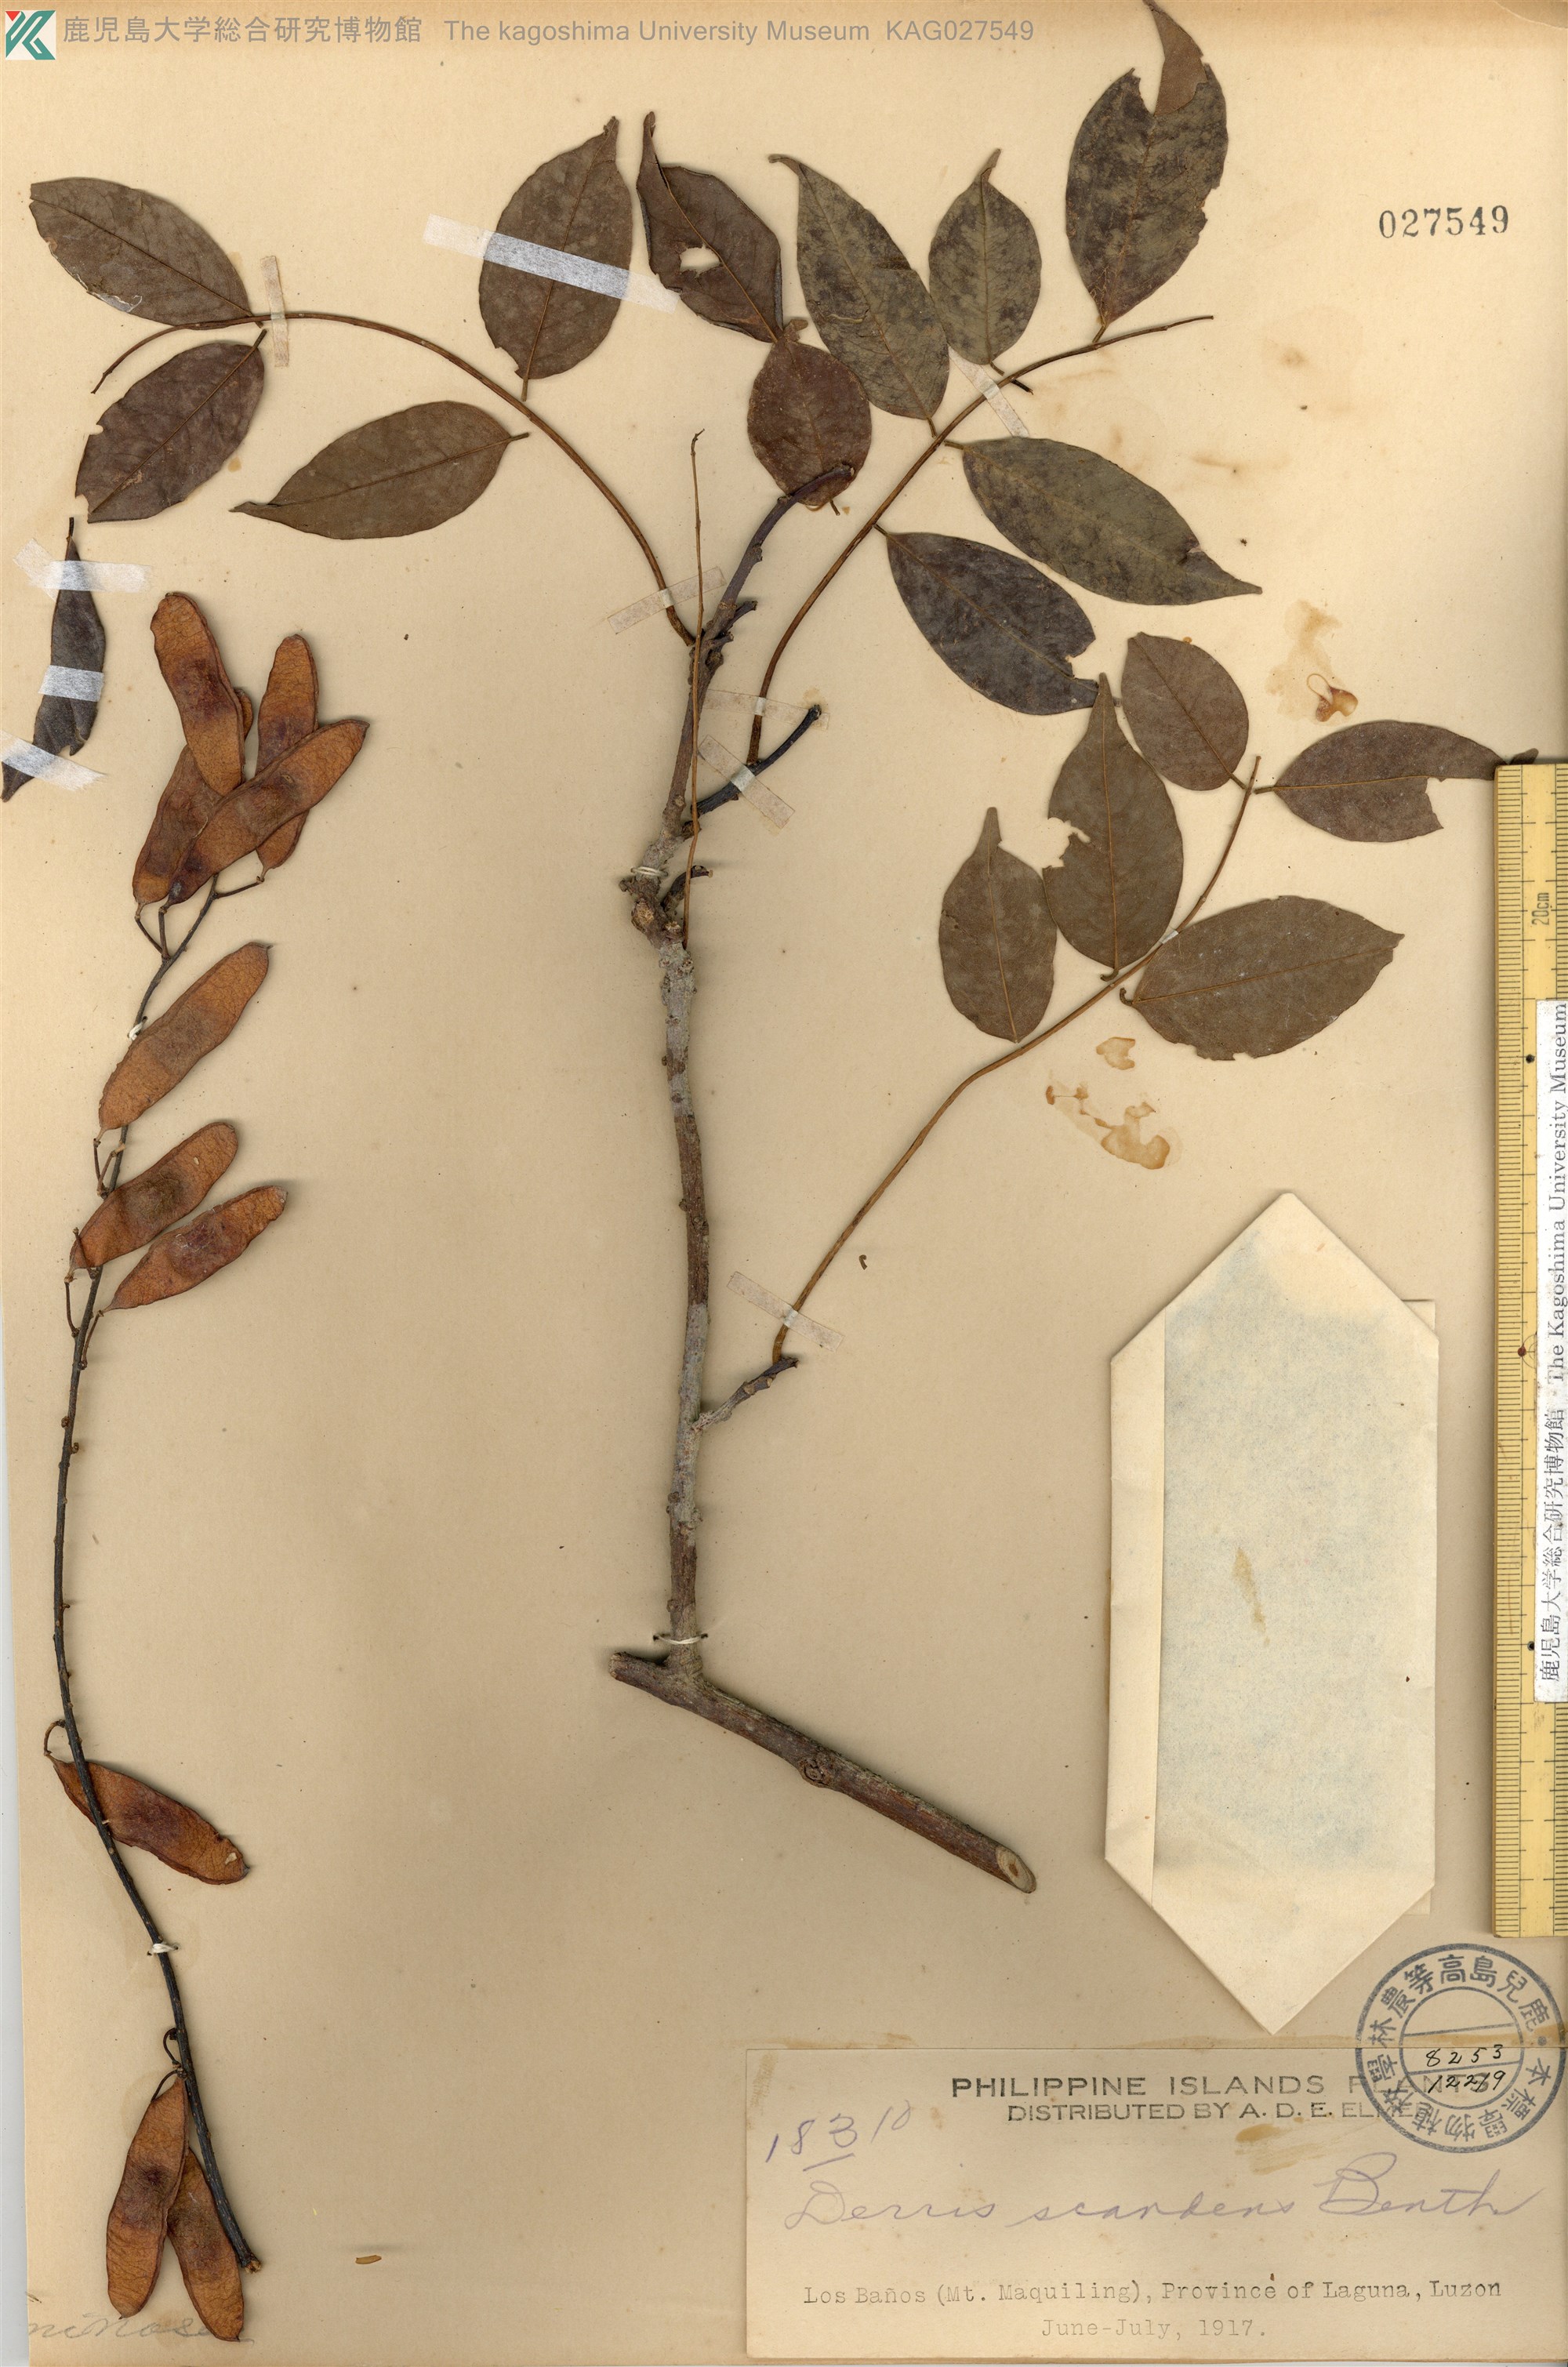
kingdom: Plantae
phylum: Tracheophyta
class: Magnoliopsida
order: Fabales
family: Fabaceae
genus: Deguelia
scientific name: Deguelia scandens
